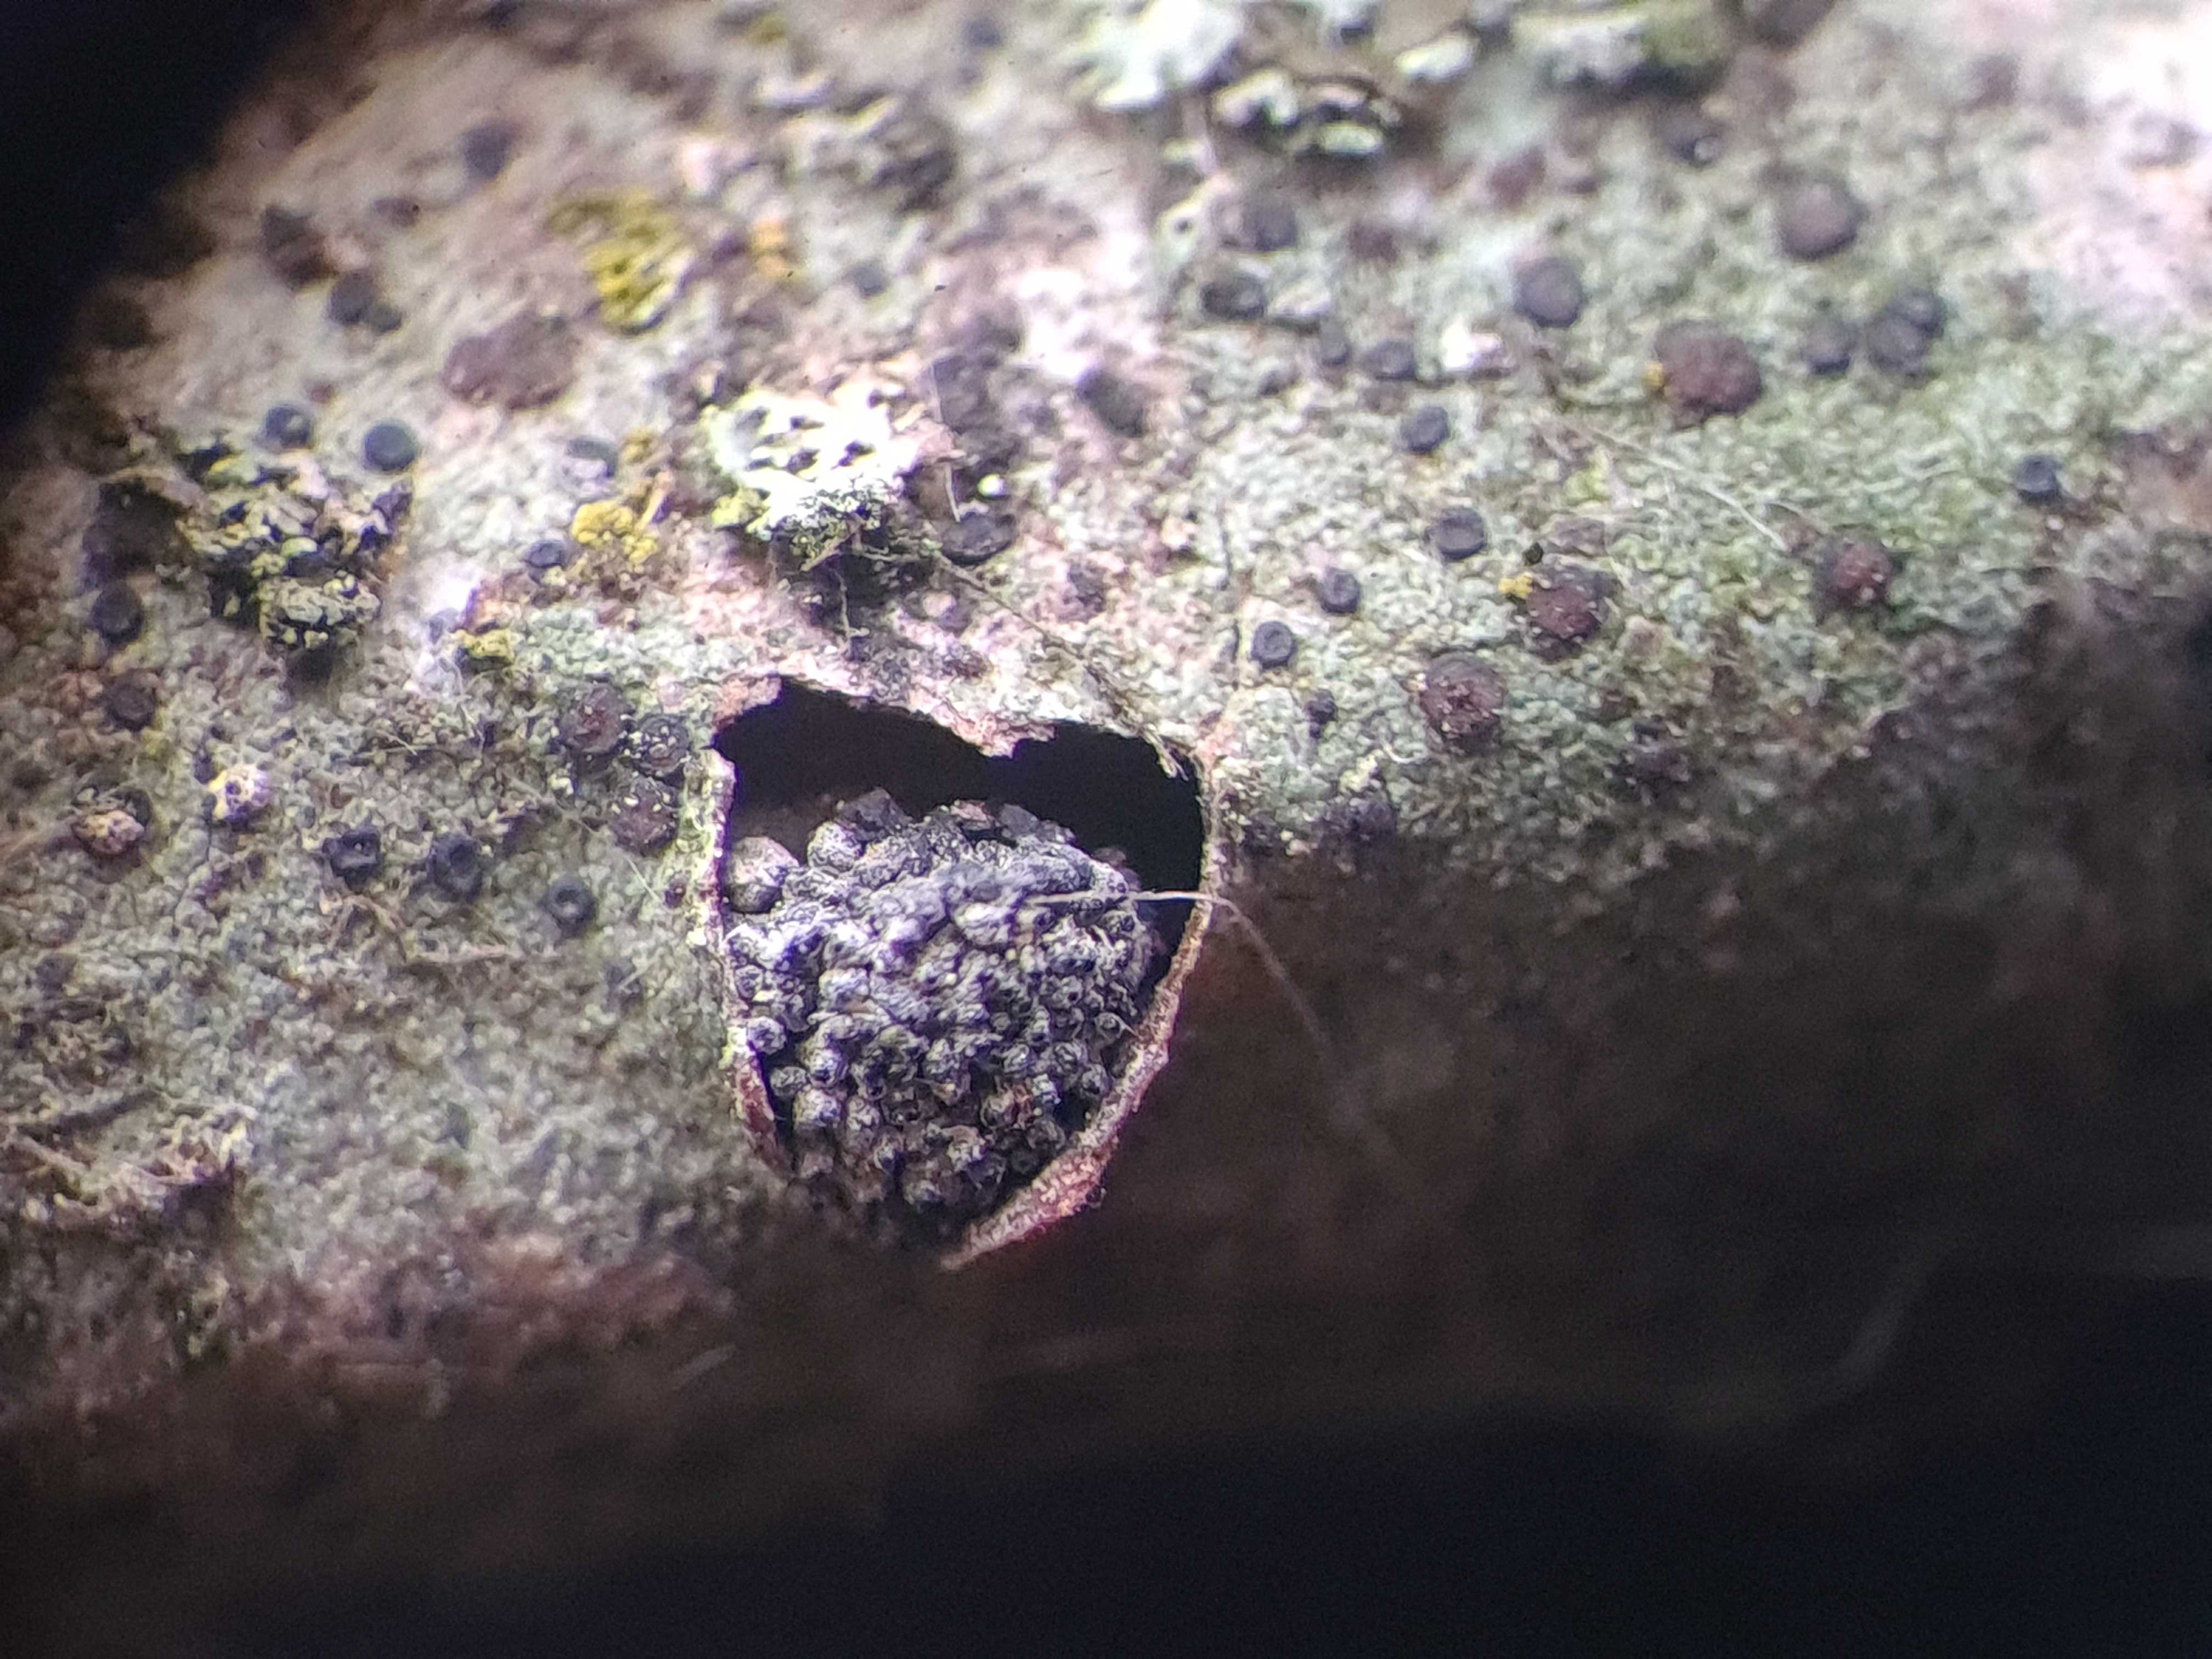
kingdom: Fungi
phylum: Ascomycota
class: Sordariomycetes
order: Xylariales
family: Diatrypaceae
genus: Eutypella
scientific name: Eutypella sorbi
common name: rønne-kulskorpe
